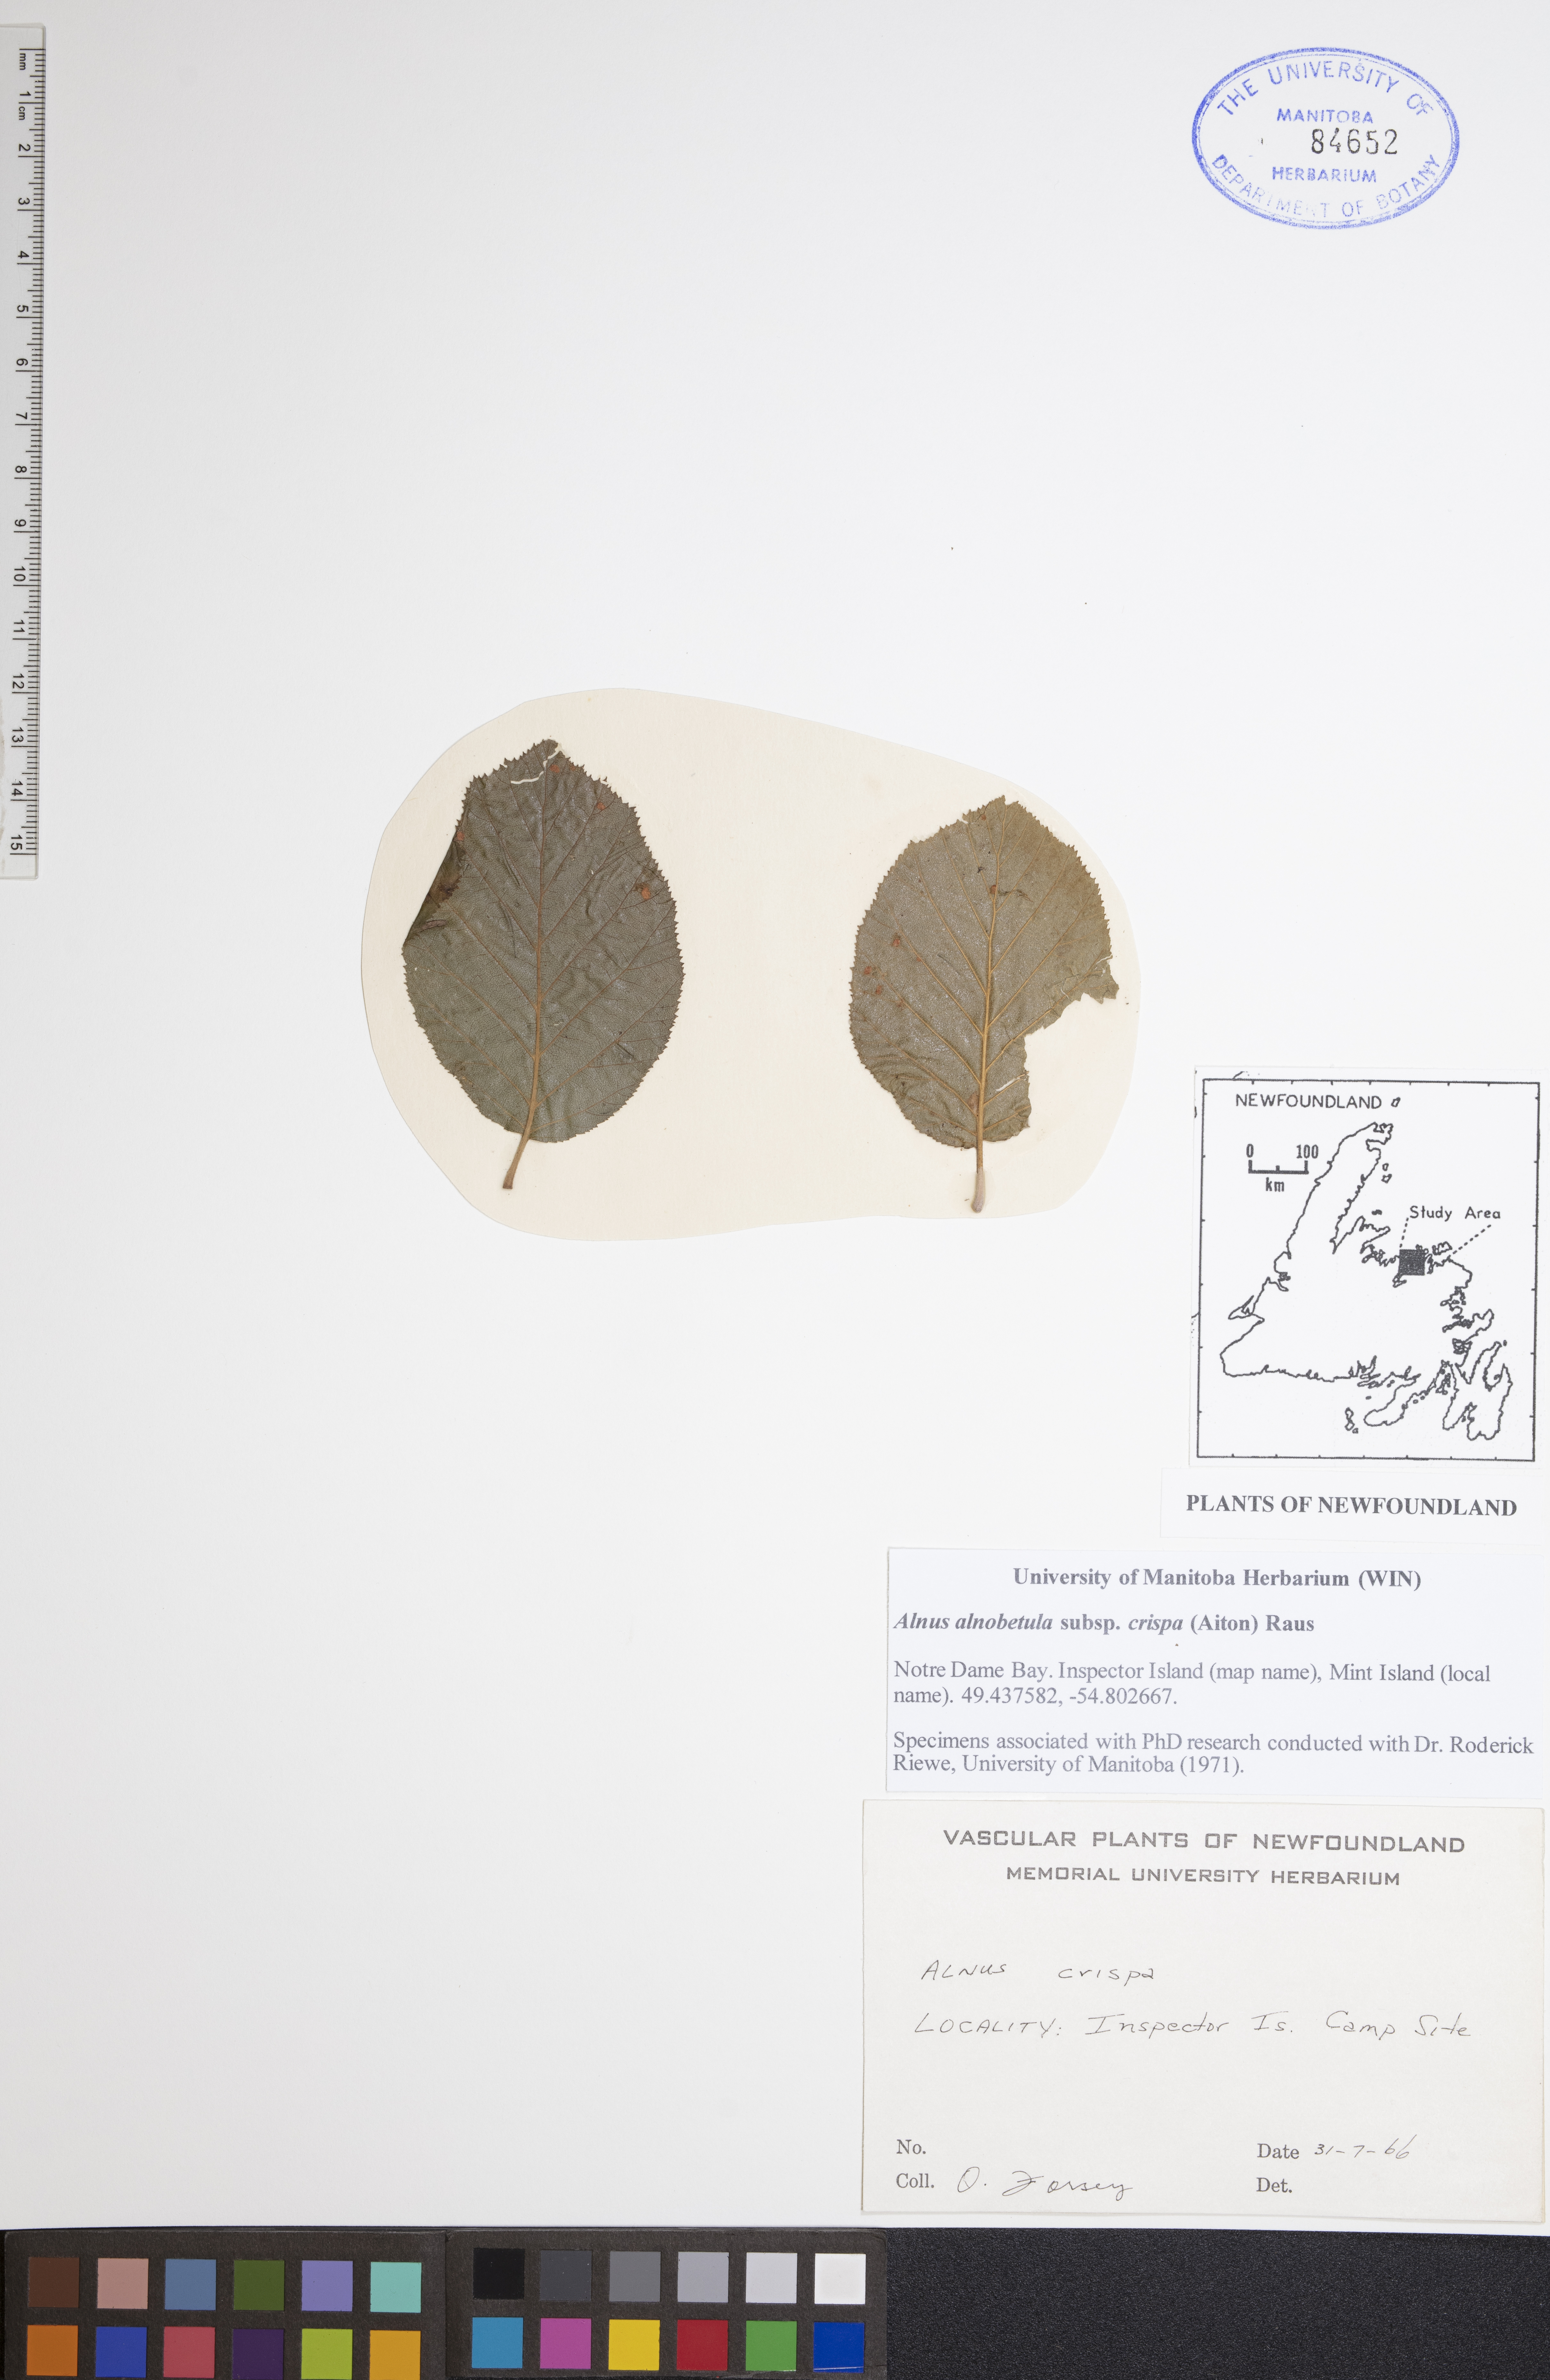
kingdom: Plantae
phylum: Tracheophyta
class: Magnoliopsida
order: Fagales
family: Betulaceae
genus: Alnus
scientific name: Alnus alnobetula
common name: Green alder
